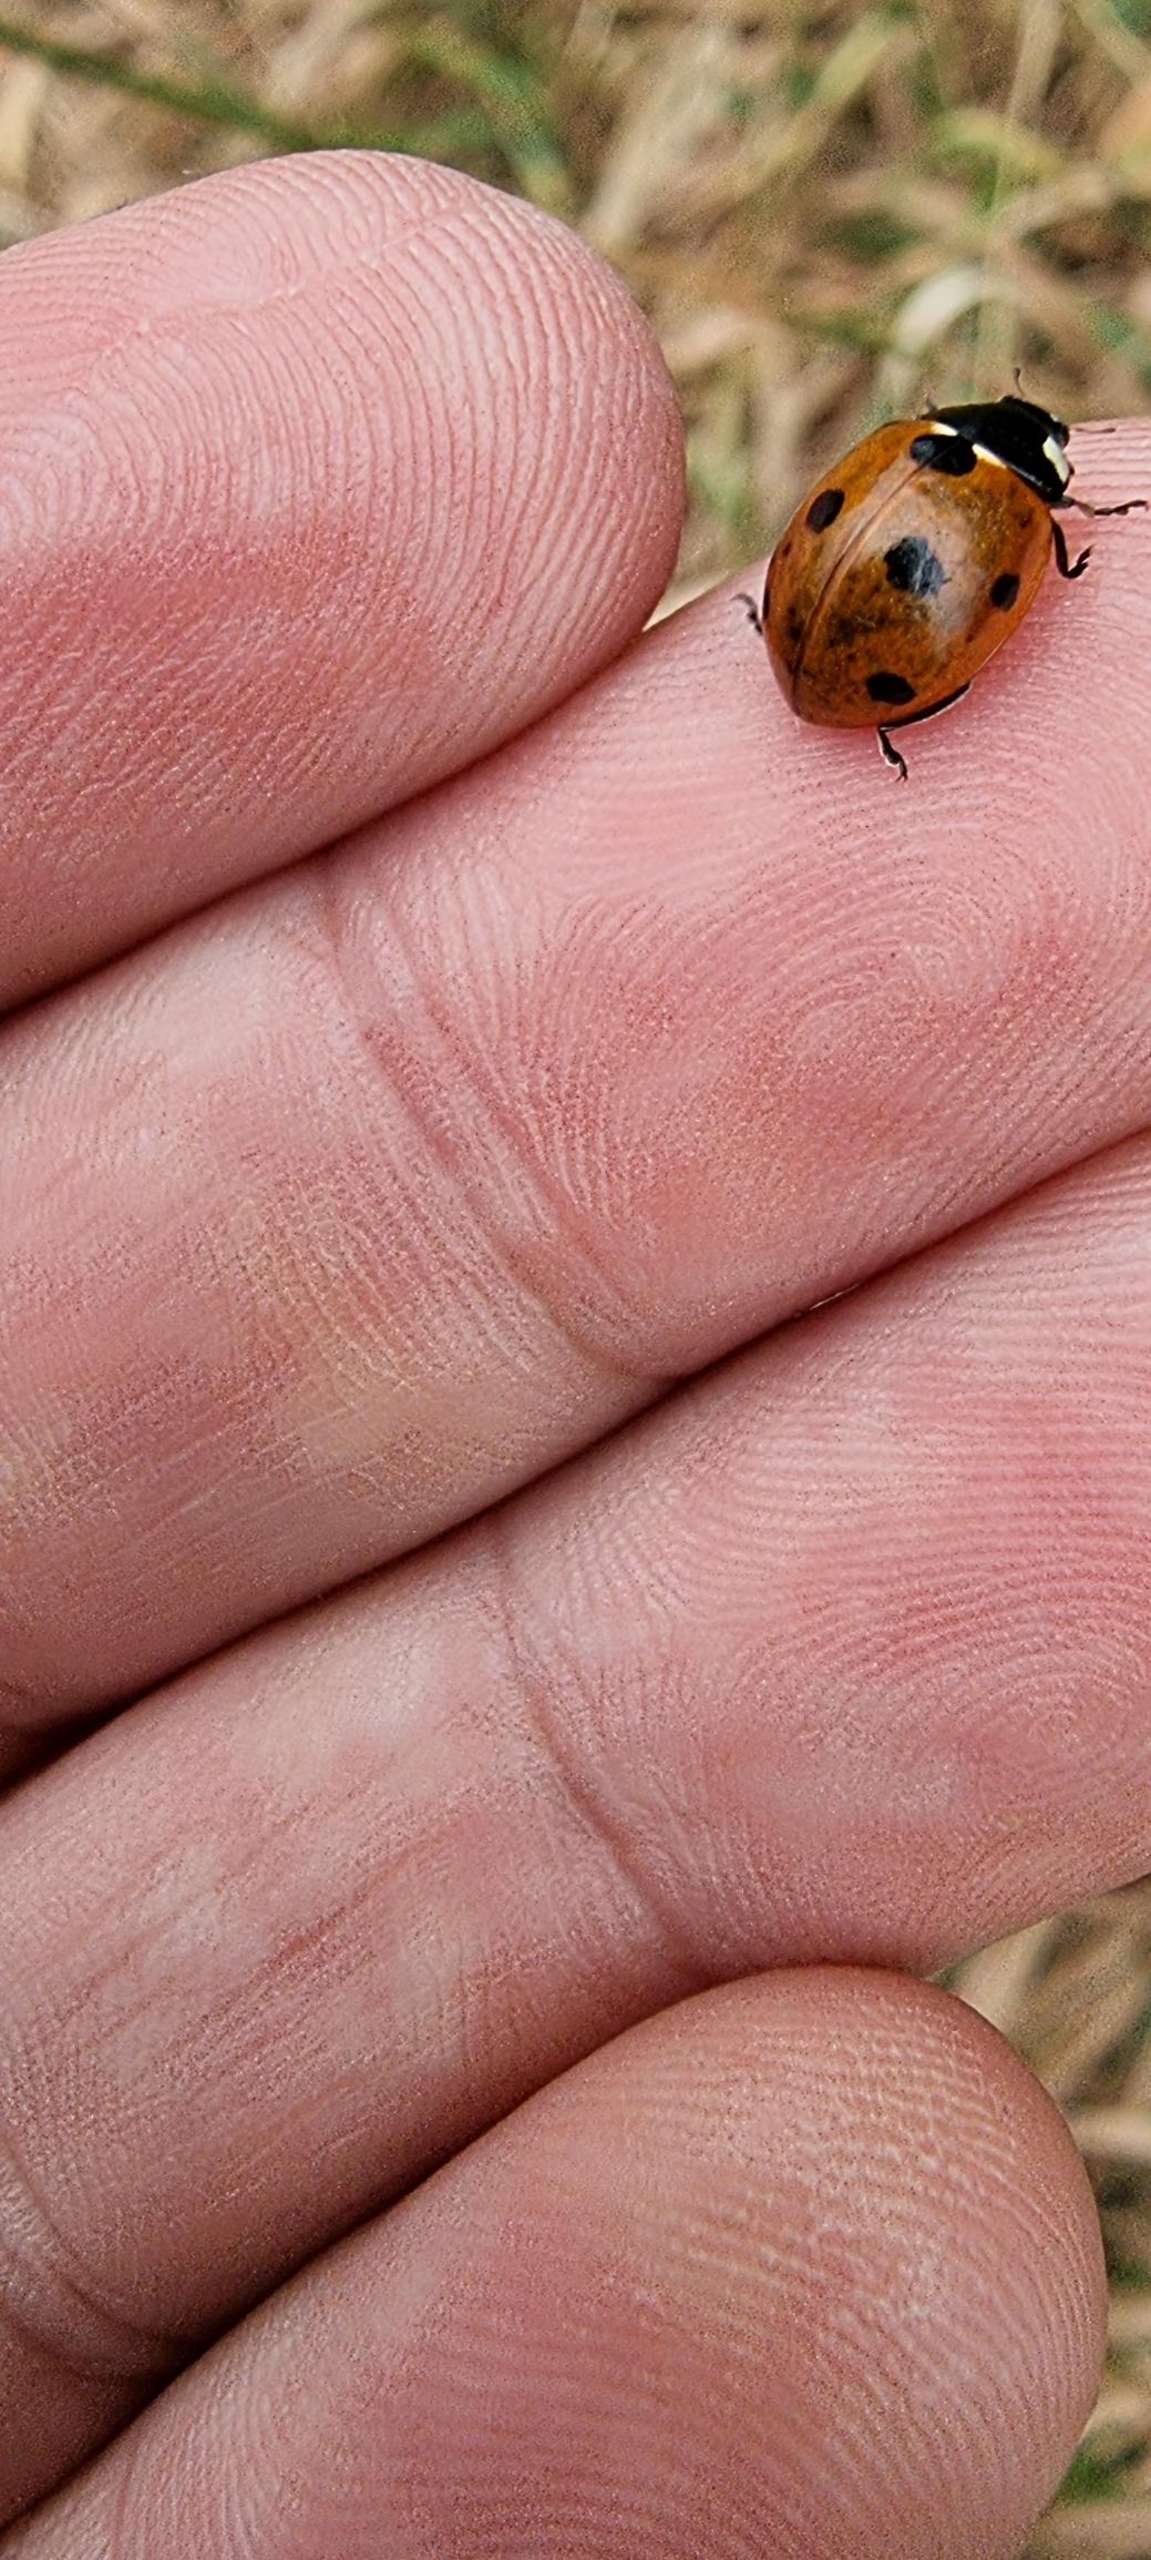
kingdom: Animalia
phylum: Arthropoda
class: Insecta
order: Coleoptera
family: Coccinellidae
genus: Coccinella
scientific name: Coccinella septempunctata
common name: Syvplettet mariehøne
